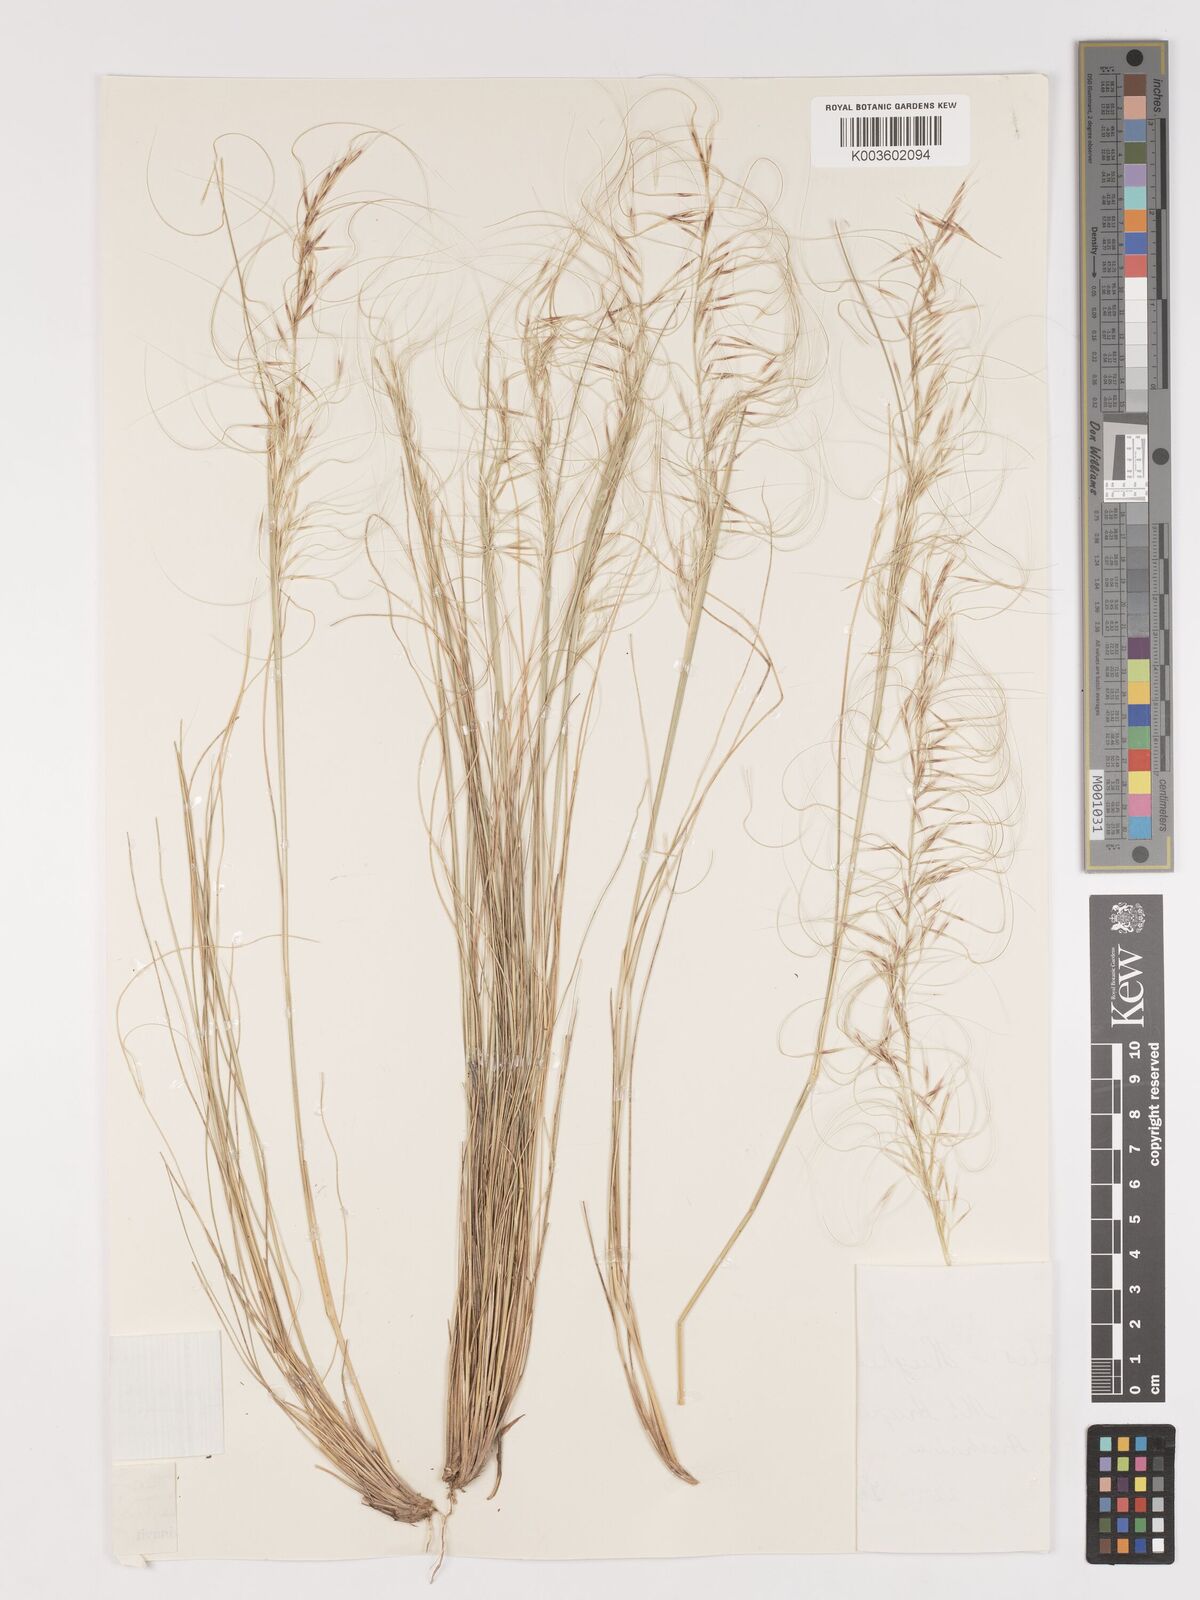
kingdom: Plantae
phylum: Tracheophyta
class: Liliopsida
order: Poales
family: Poaceae
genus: Austrostipa
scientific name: Austrostipa scabra
